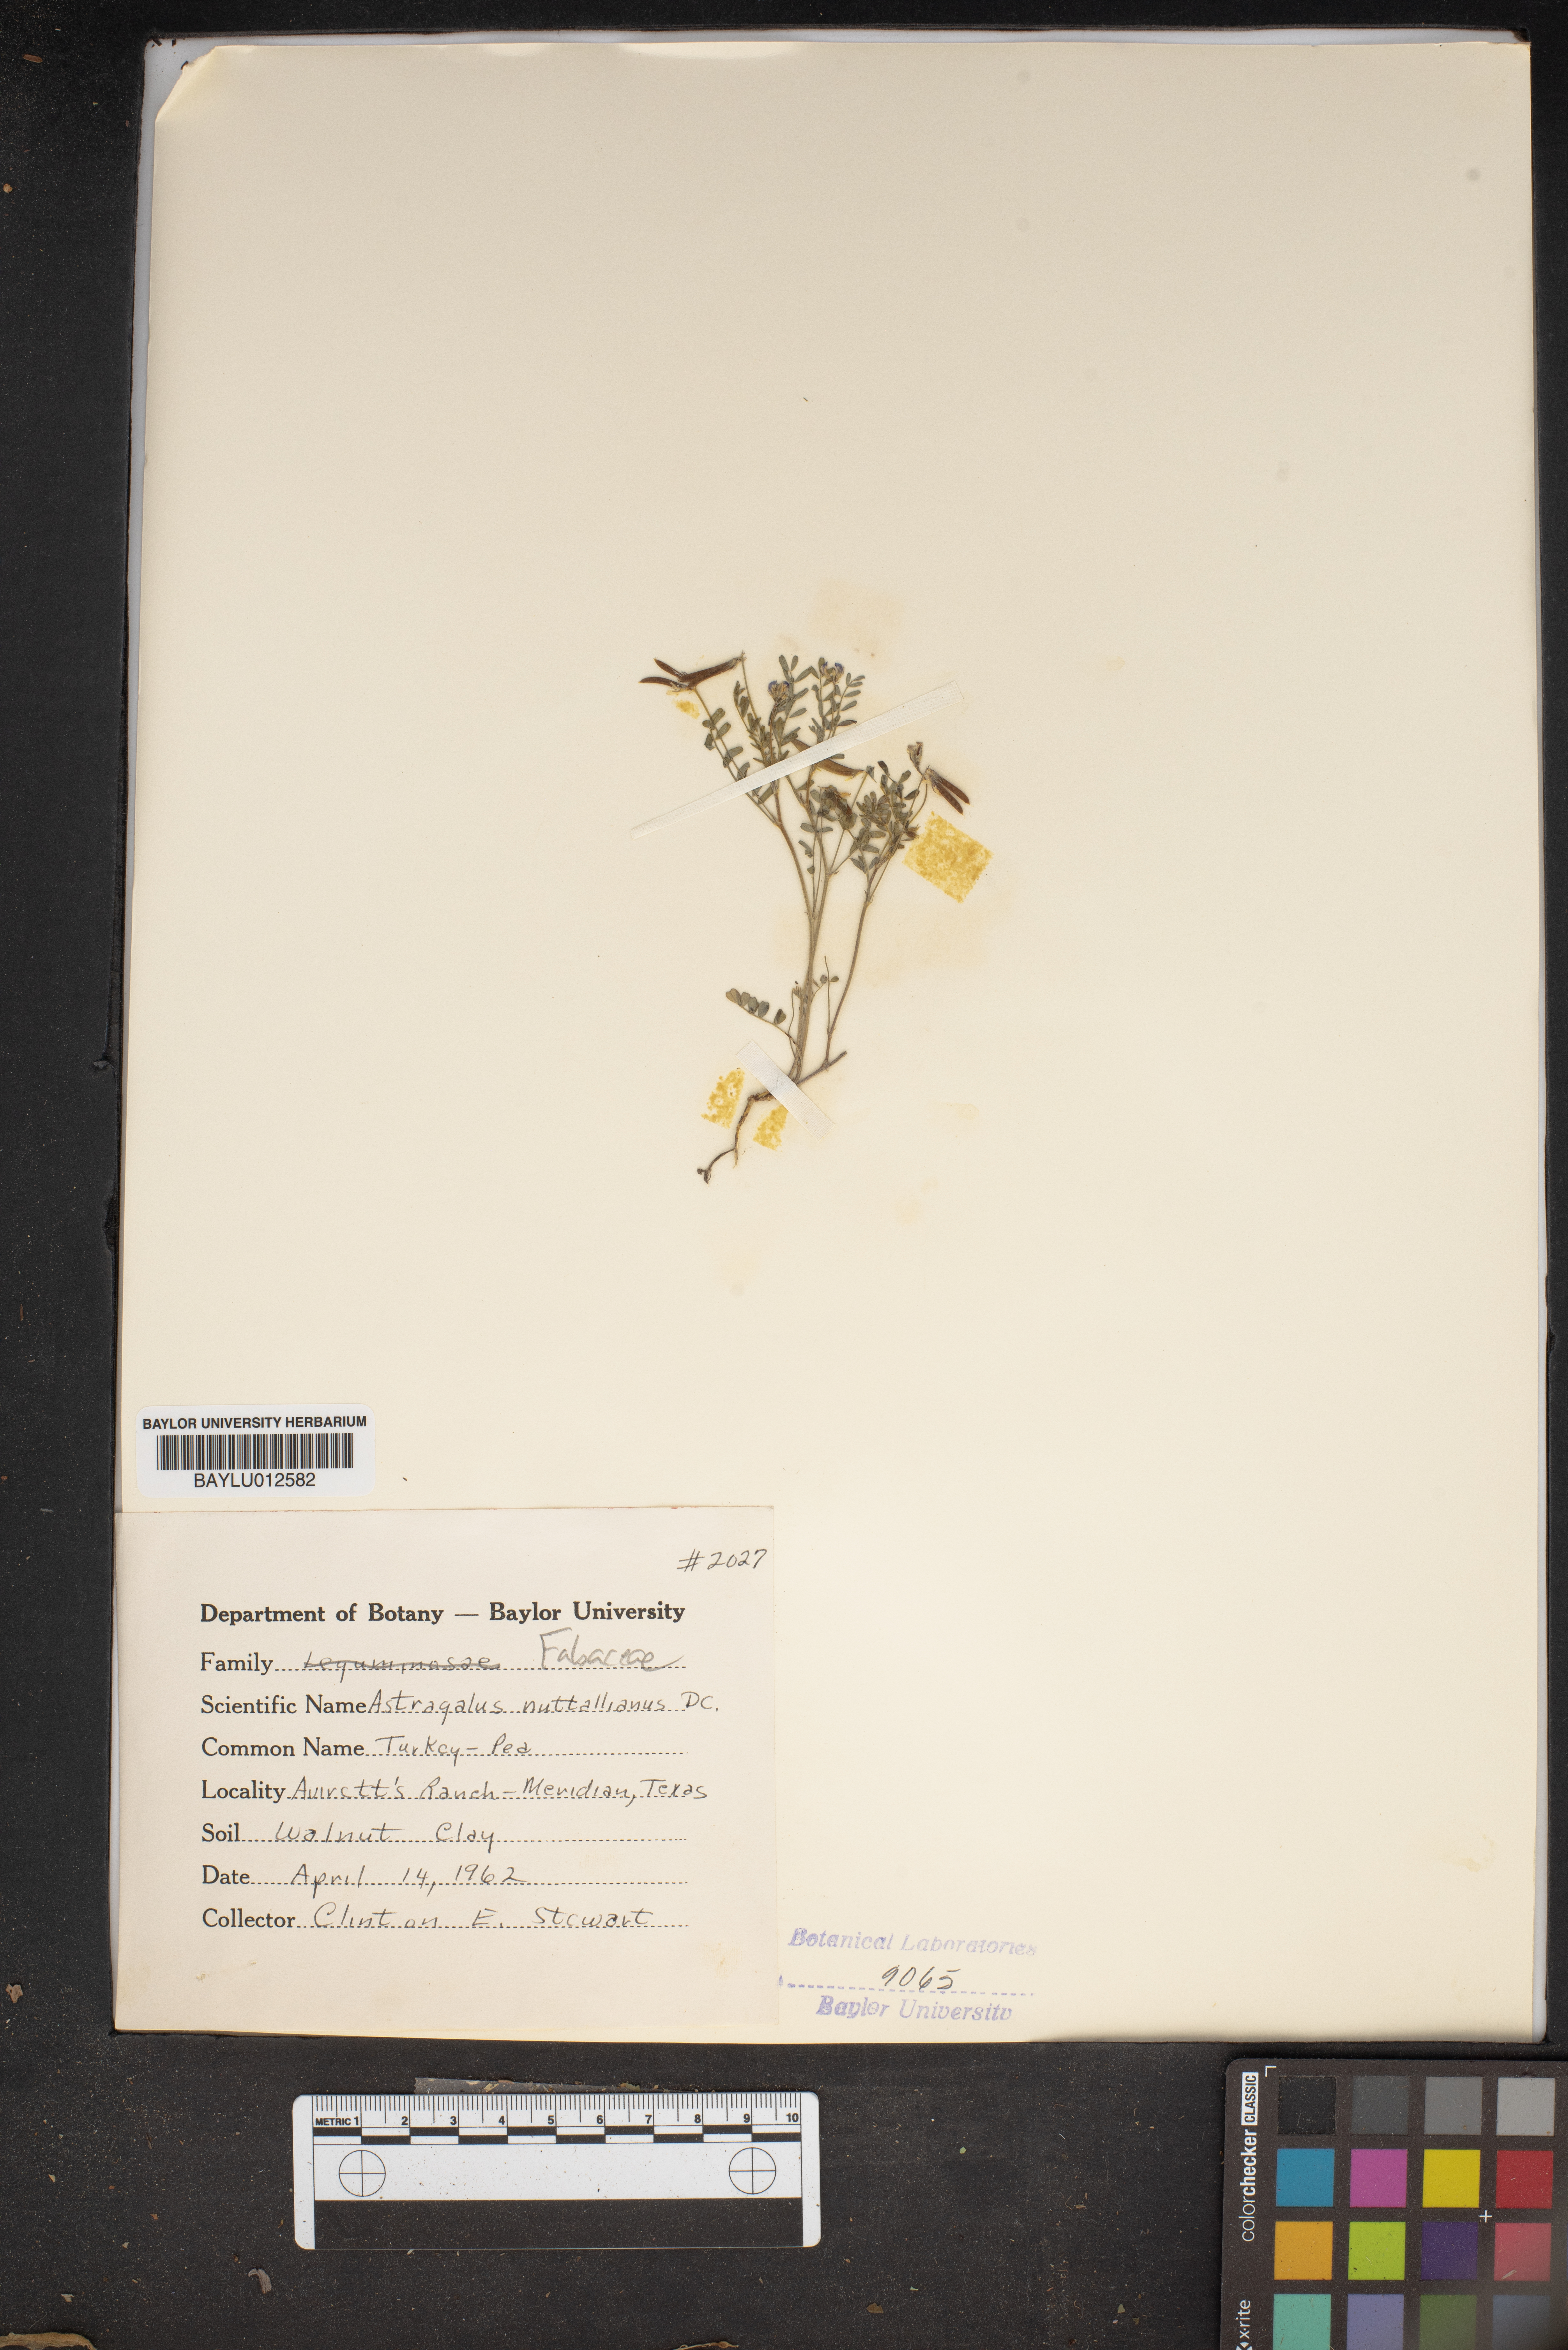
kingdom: Plantae
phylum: Tracheophyta
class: Magnoliopsida
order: Fabales
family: Fabaceae
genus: Astragalus
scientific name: Astragalus nuttallianus
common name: Smallflowered milkvetch
